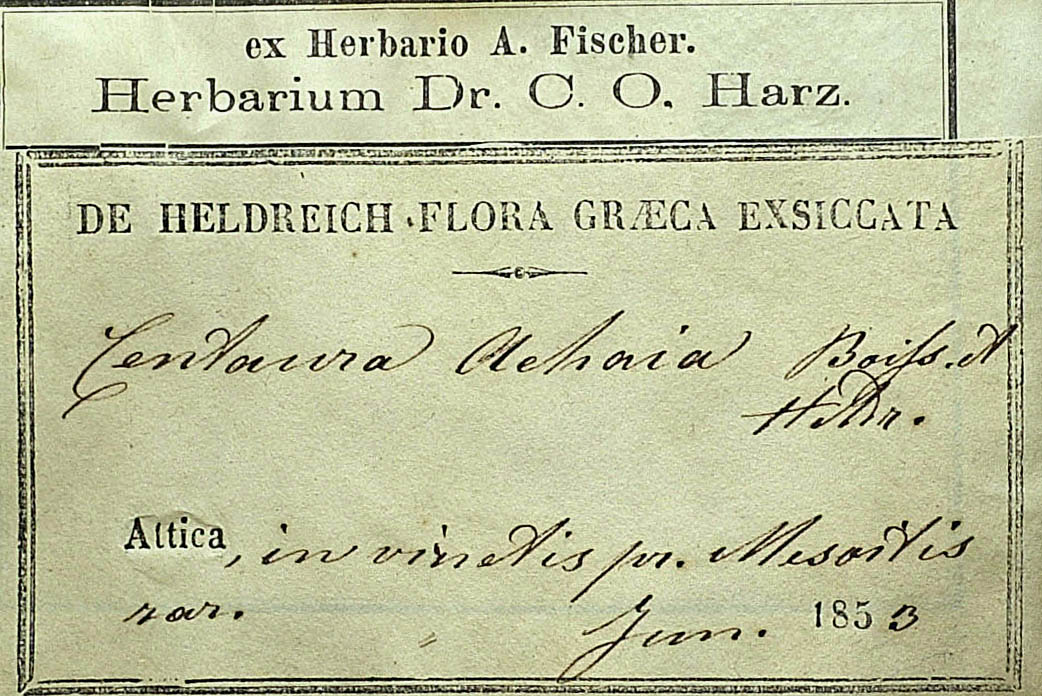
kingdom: Plantae
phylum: Tracheophyta
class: Magnoliopsida
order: Asterales
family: Asteraceae
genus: Centaurea
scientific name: Centaurea achaia
